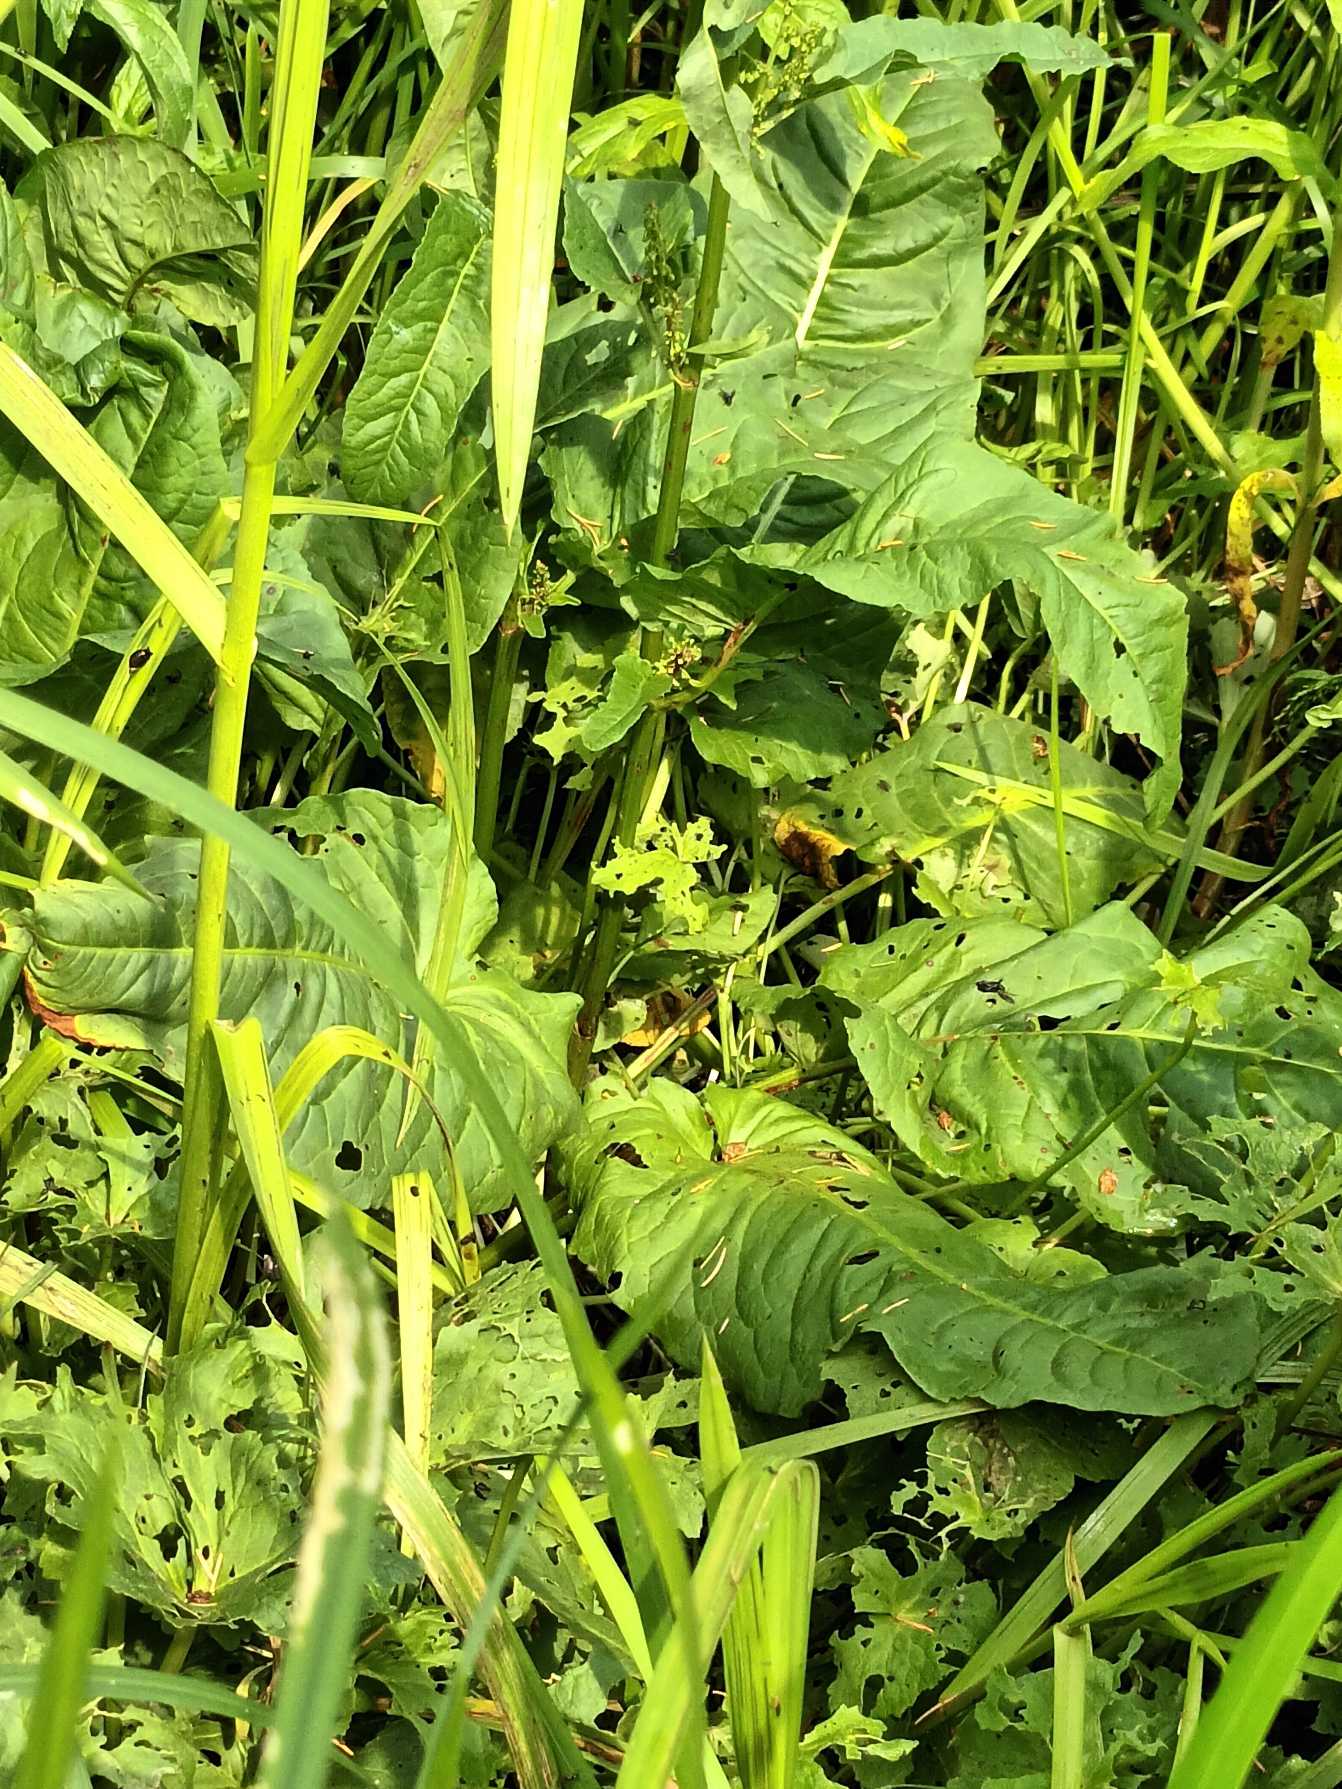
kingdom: Plantae
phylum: Tracheophyta
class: Magnoliopsida
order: Caryophyllales
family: Polygonaceae
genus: Rumex
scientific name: Rumex aquaticus
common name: Dynd-skræppe
